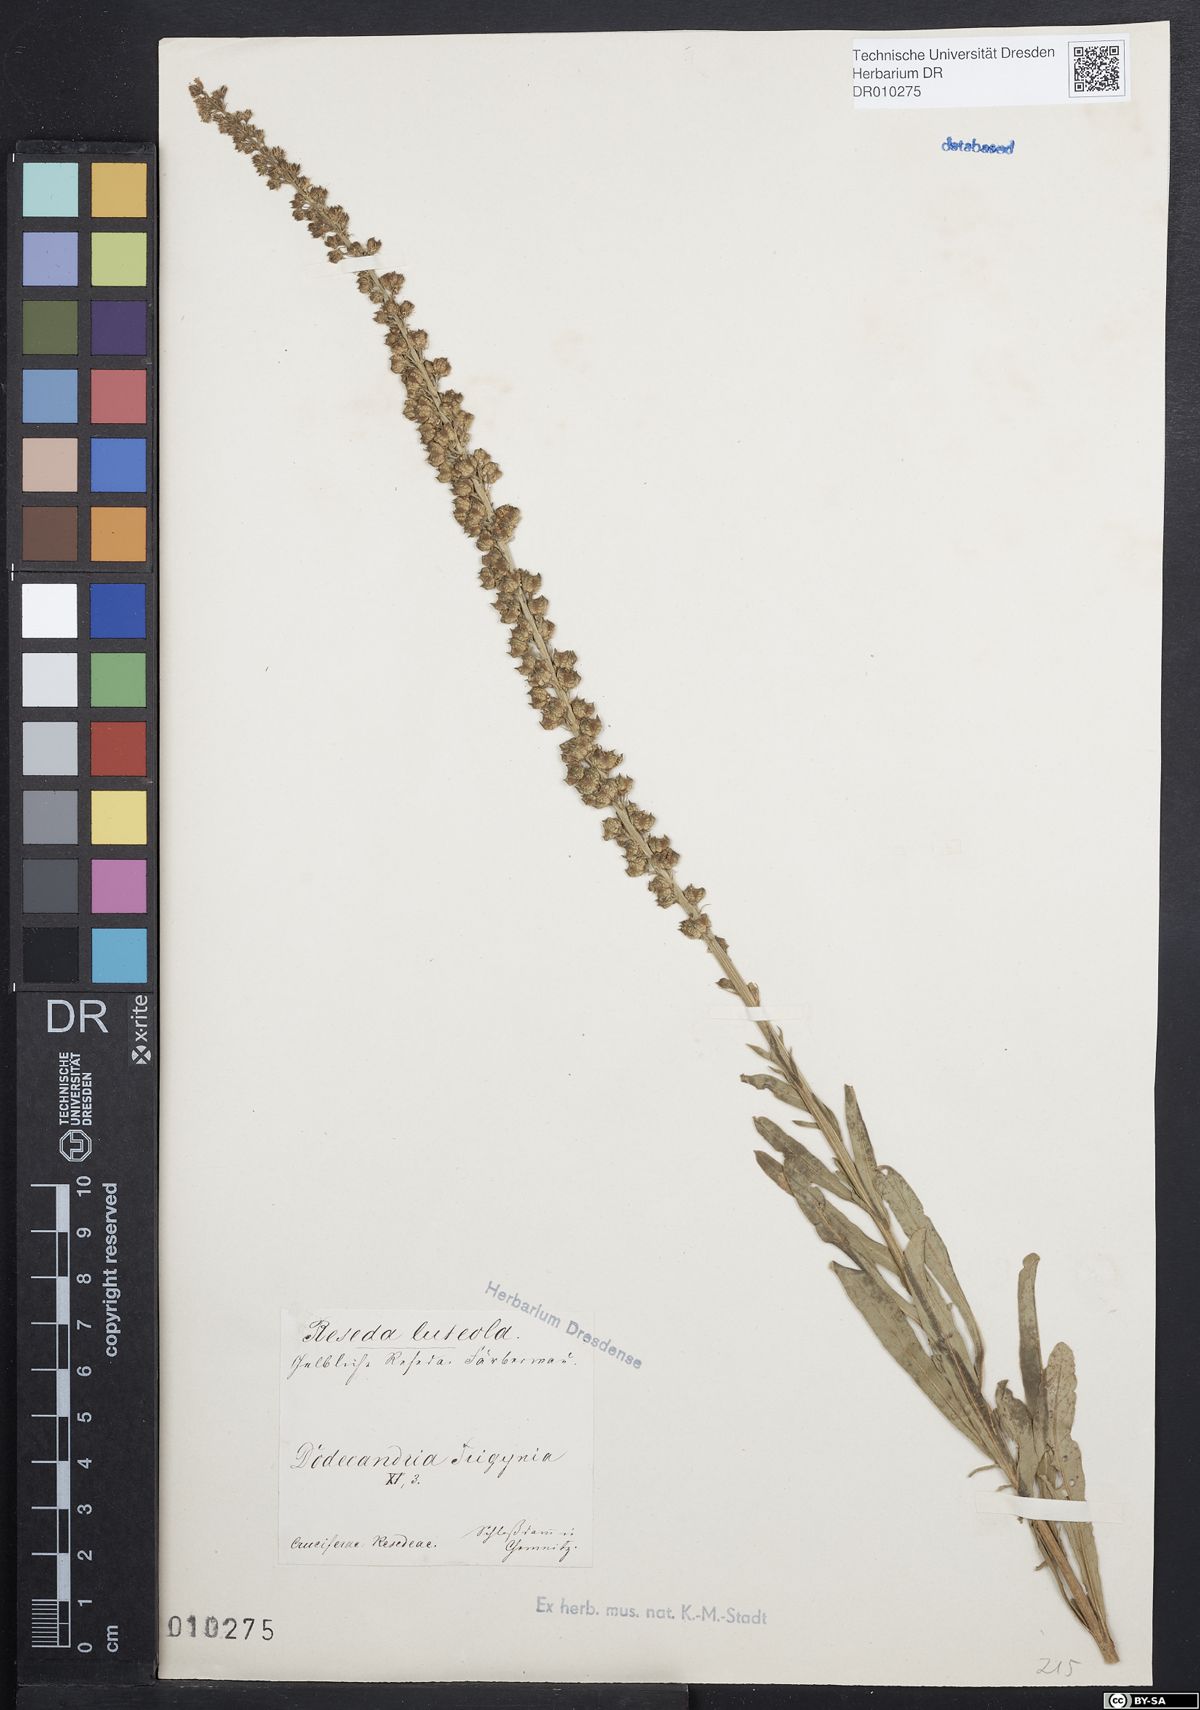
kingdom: Plantae
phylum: Tracheophyta
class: Magnoliopsida
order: Brassicales
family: Resedaceae
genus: Reseda
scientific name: Reseda lutea
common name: Wild mignonette
